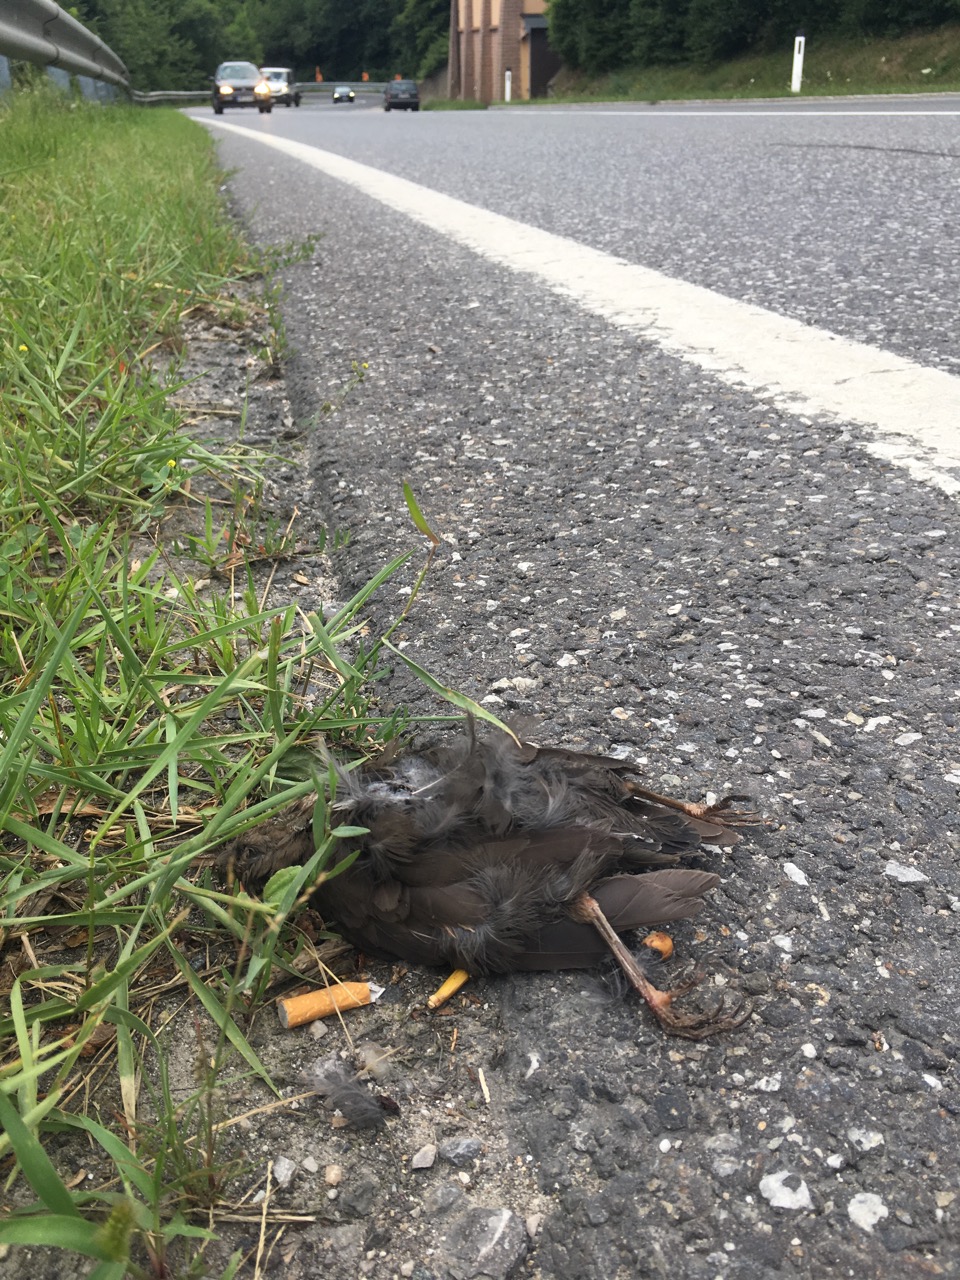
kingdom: Animalia
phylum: Chordata
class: Aves
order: Passeriformes
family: Turdidae
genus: Turdus
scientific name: Turdus merula
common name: Common blackbird
